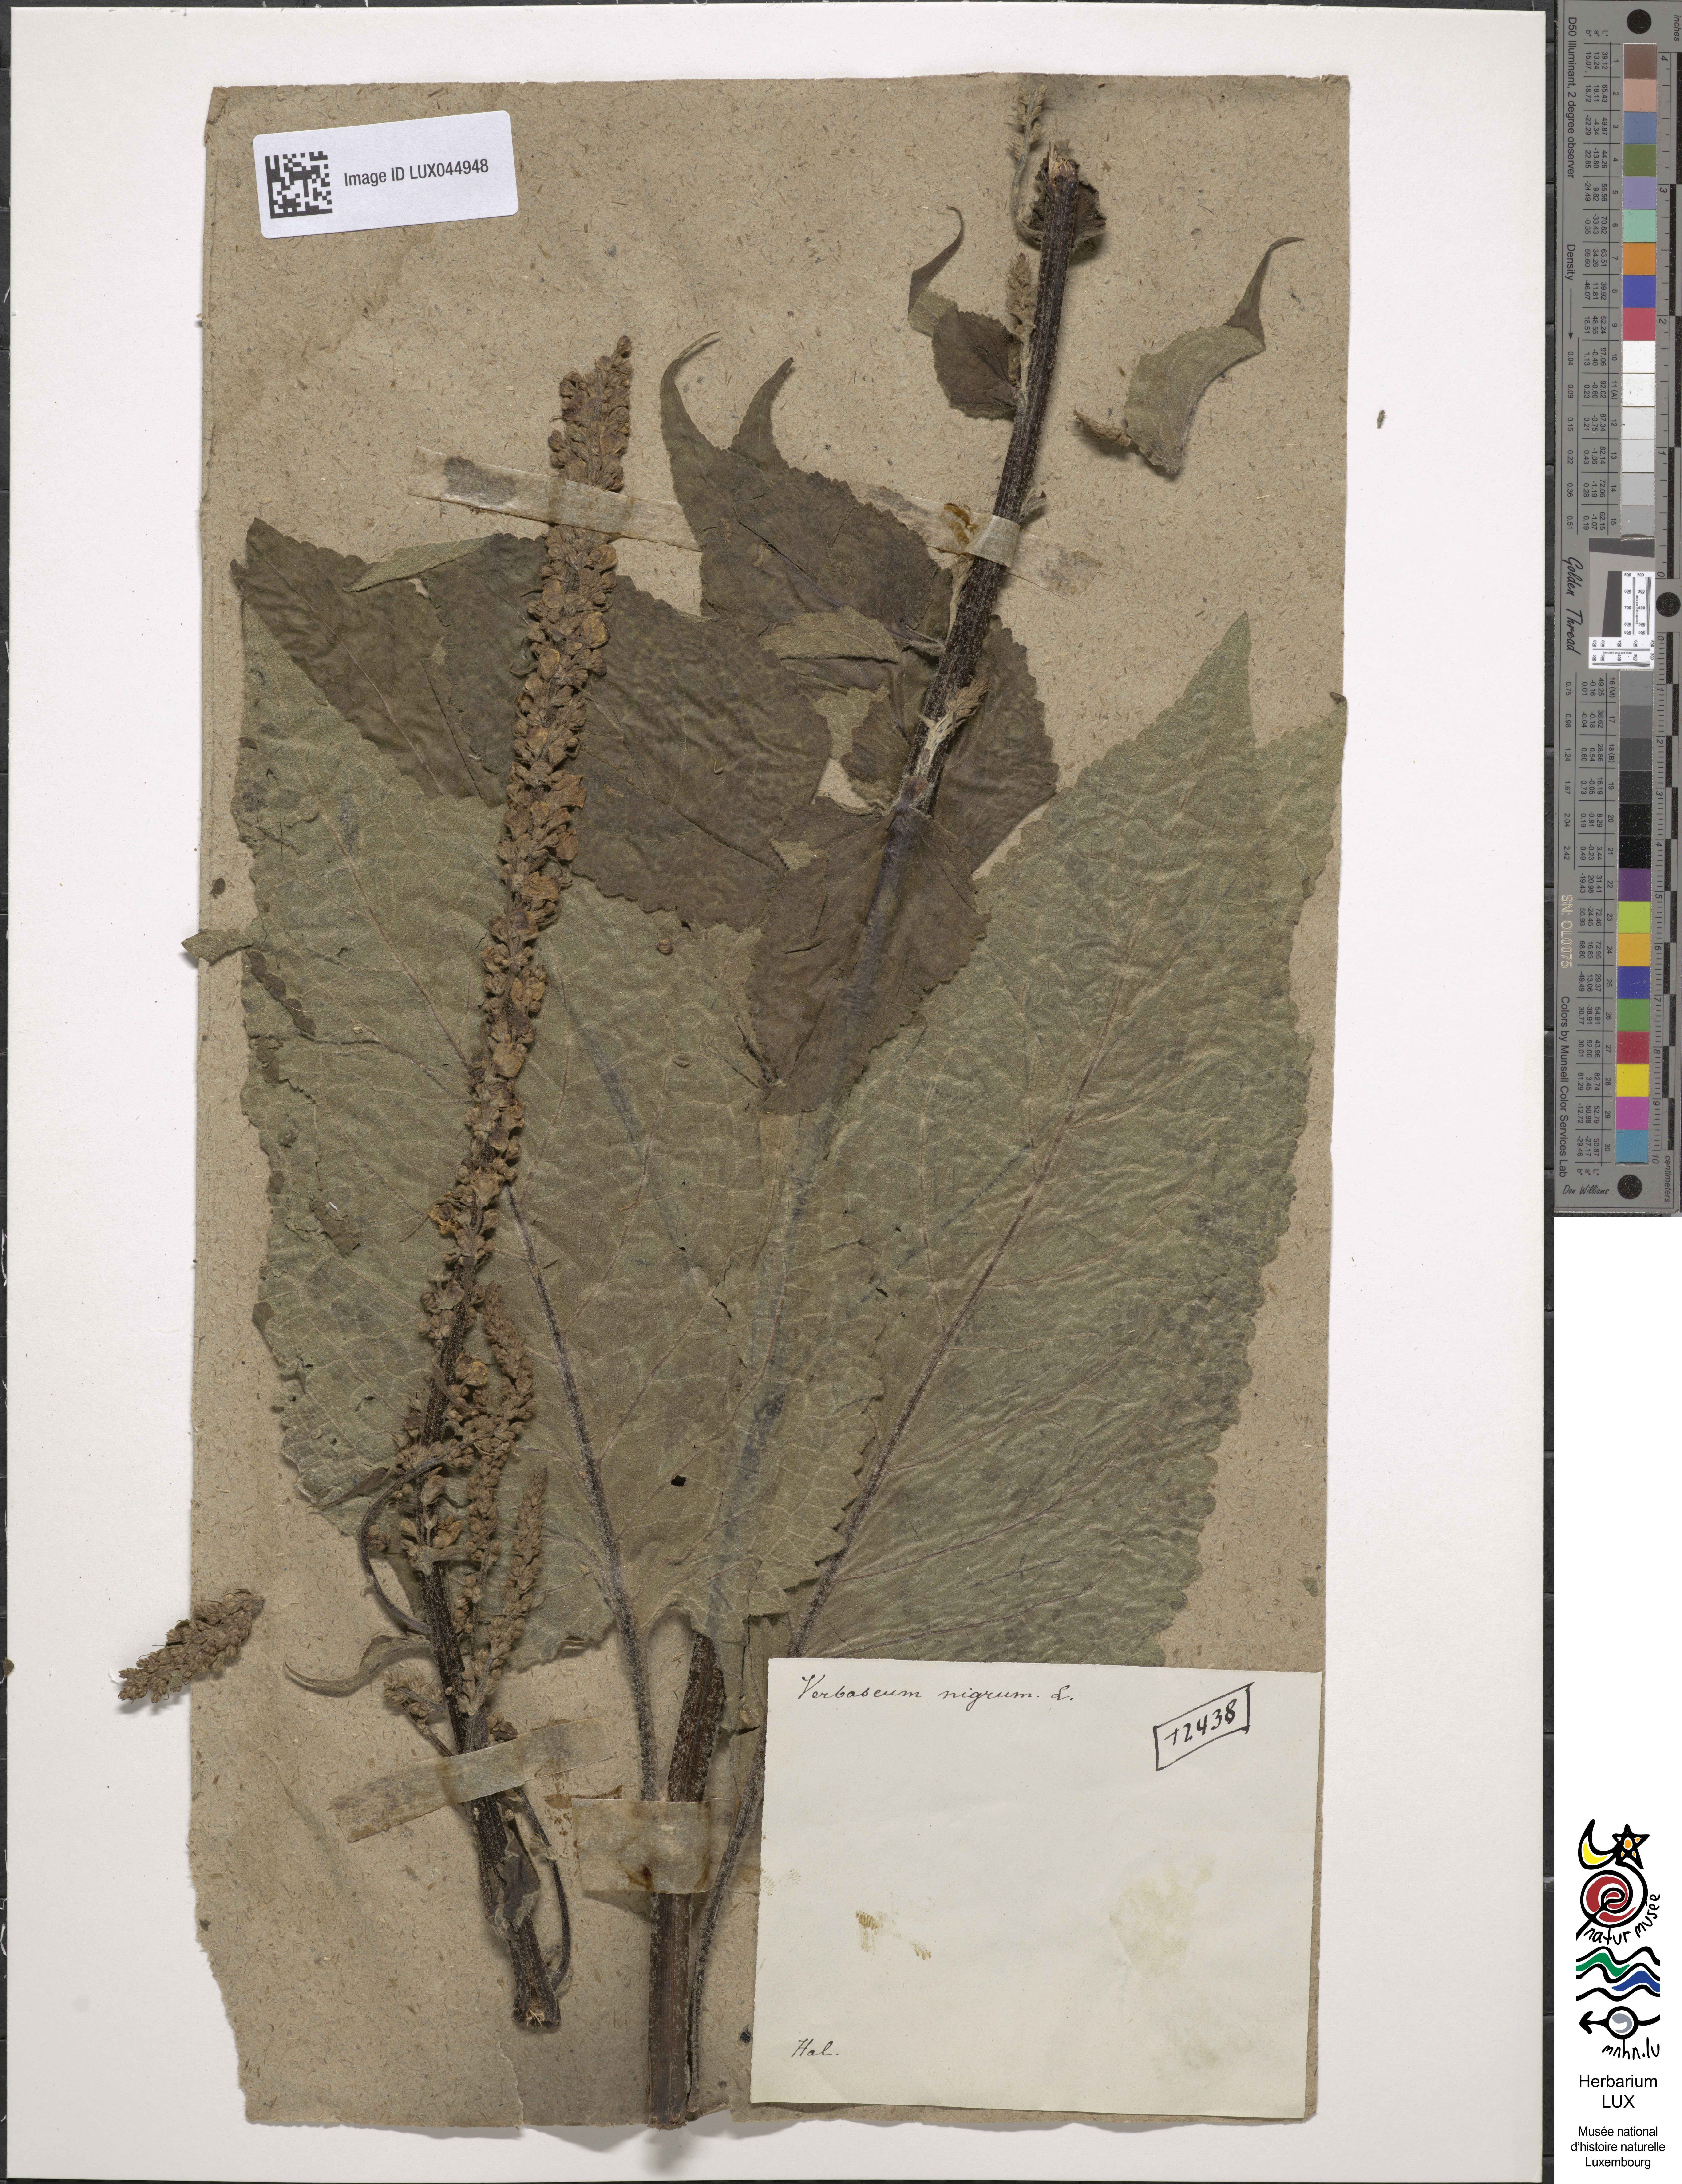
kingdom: Plantae
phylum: Tracheophyta
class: Magnoliopsida
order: Lamiales
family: Scrophulariaceae
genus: Verbascum
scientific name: Verbascum nigrum
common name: Dark mullein
